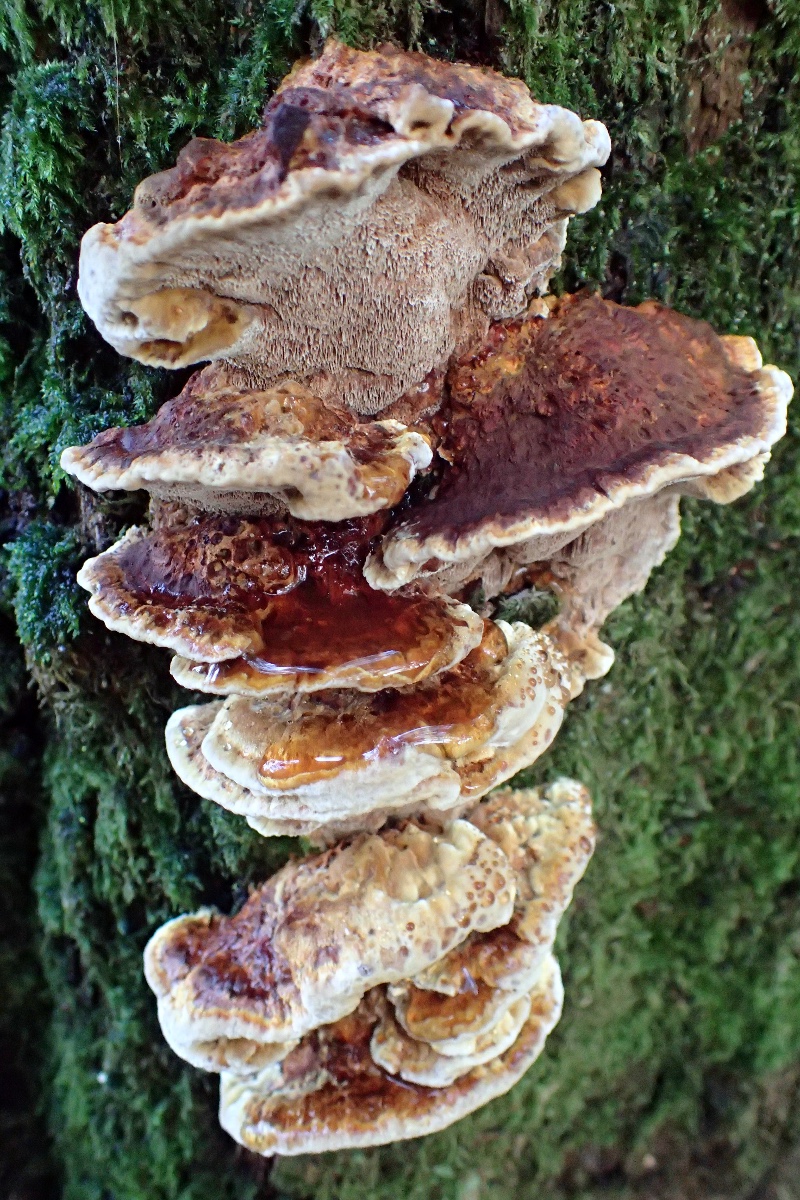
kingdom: Fungi
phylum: Basidiomycota
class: Agaricomycetes
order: Hymenochaetales
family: Hymenochaetaceae
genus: Xanthoporia
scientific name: Xanthoporia radiata
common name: elle-spejlporesvamp
